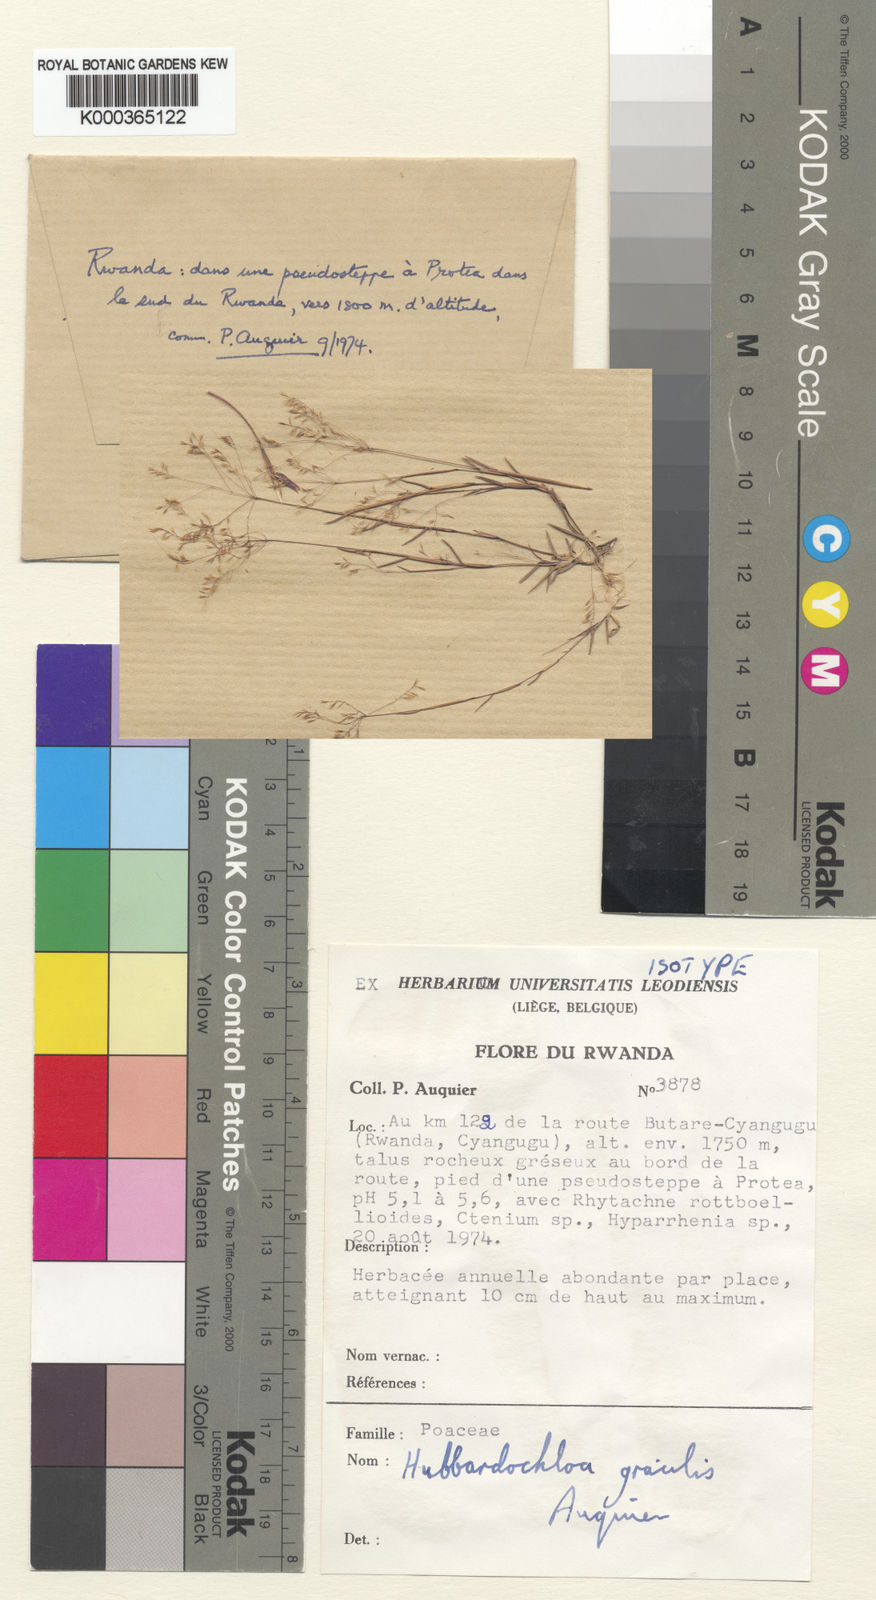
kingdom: Plantae
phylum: Tracheophyta
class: Liliopsida
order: Poales
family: Poaceae
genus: Hubbardochloa
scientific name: Hubbardochloa gracilis
